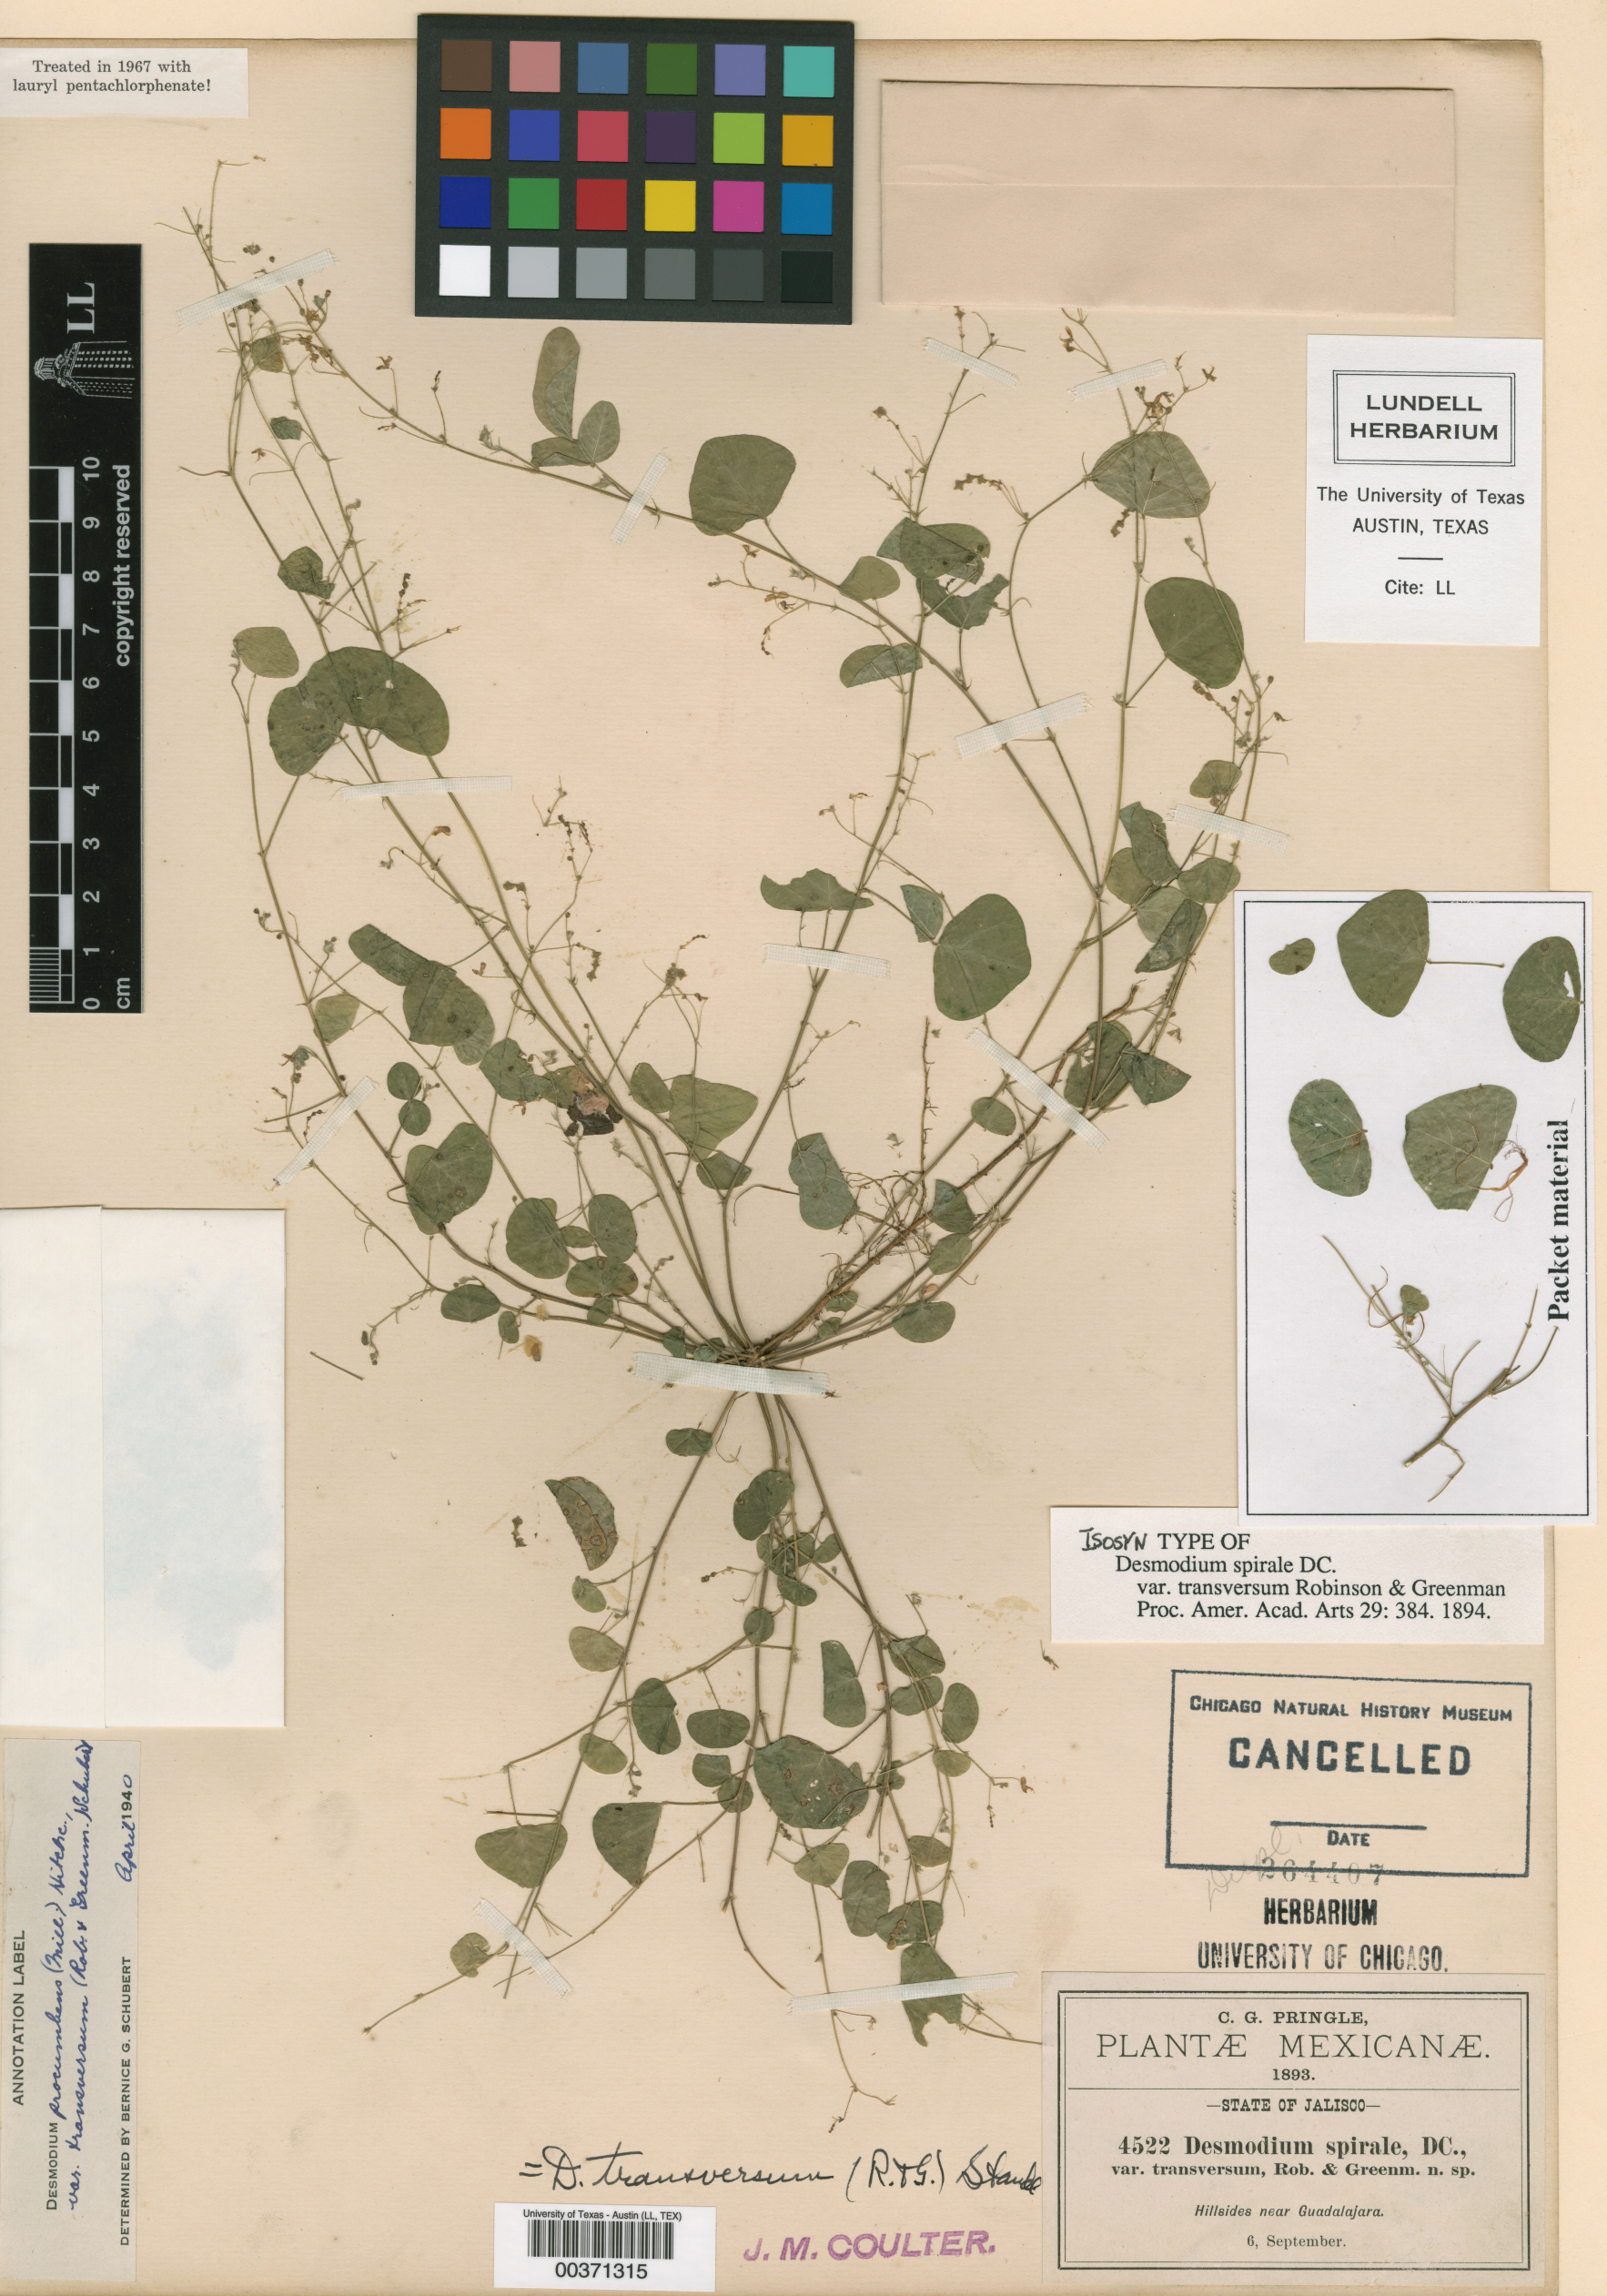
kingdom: Plantae
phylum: Tracheophyta
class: Magnoliopsida
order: Fabales
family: Fabaceae
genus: Desmodium
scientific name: Desmodium procumbens
